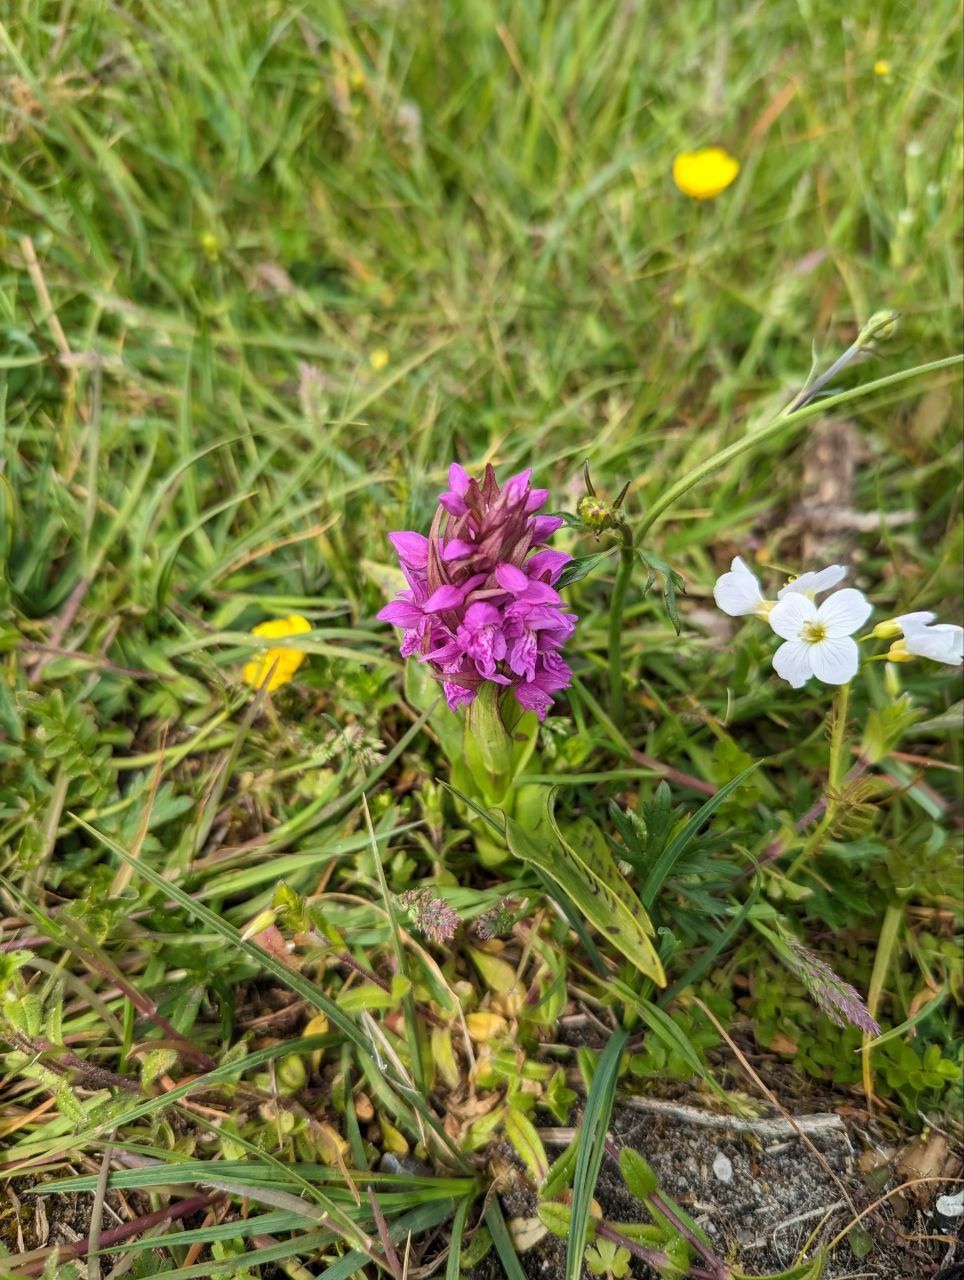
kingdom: Plantae
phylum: Tracheophyta
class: Liliopsida
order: Asparagales
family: Orchidaceae
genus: Dactylorhiza
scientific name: Dactylorhiza majalis
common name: Maj-gøgeurt
